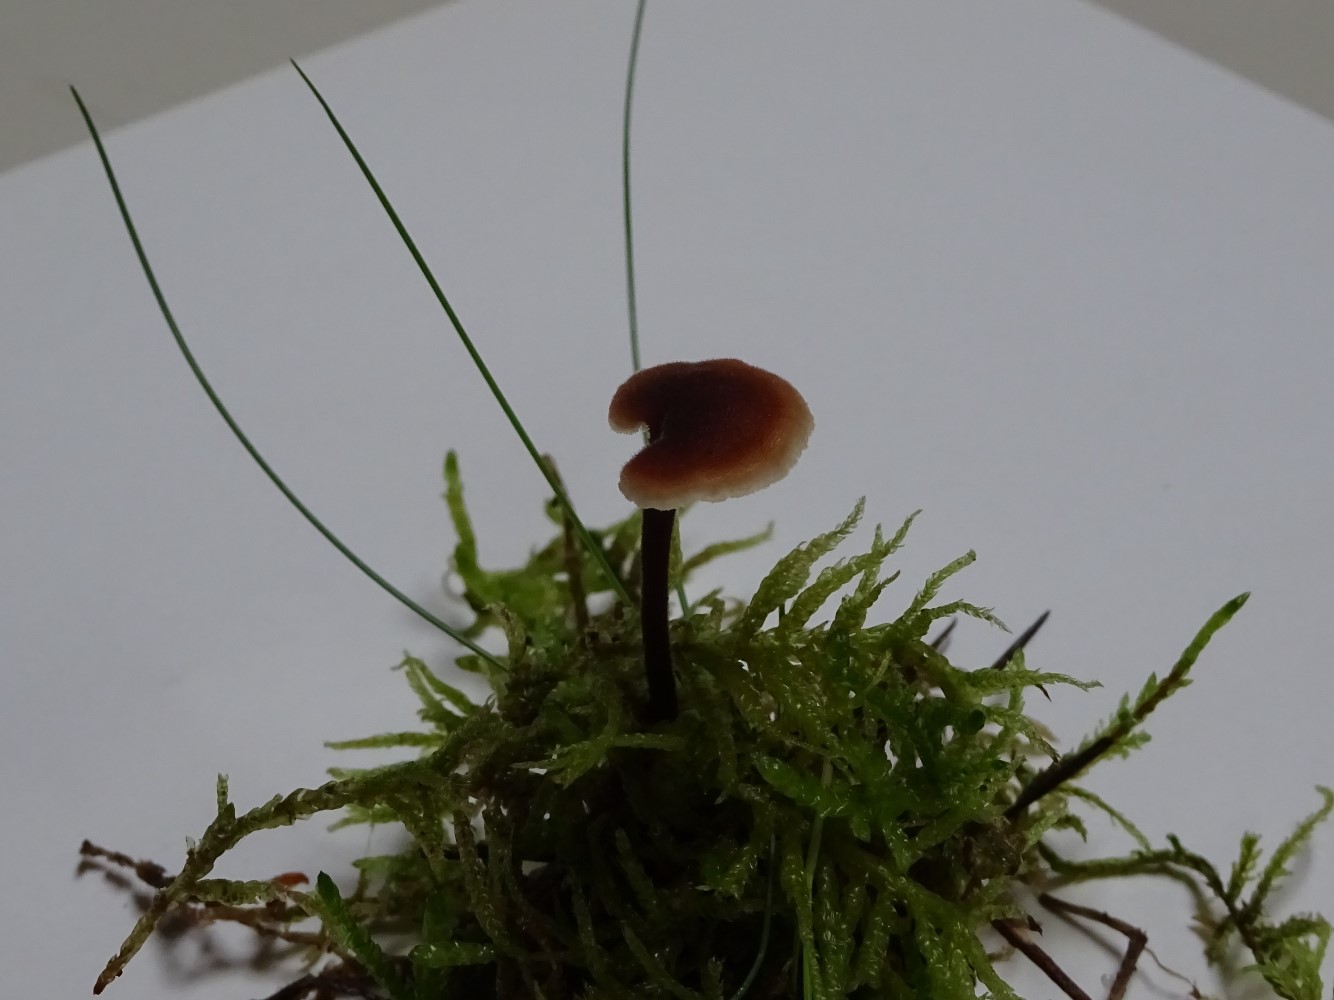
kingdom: Fungi
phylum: Basidiomycota
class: Agaricomycetes
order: Russulales
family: Auriscalpiaceae
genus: Auriscalpium
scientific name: Auriscalpium vulgare
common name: koglepigsvamp
